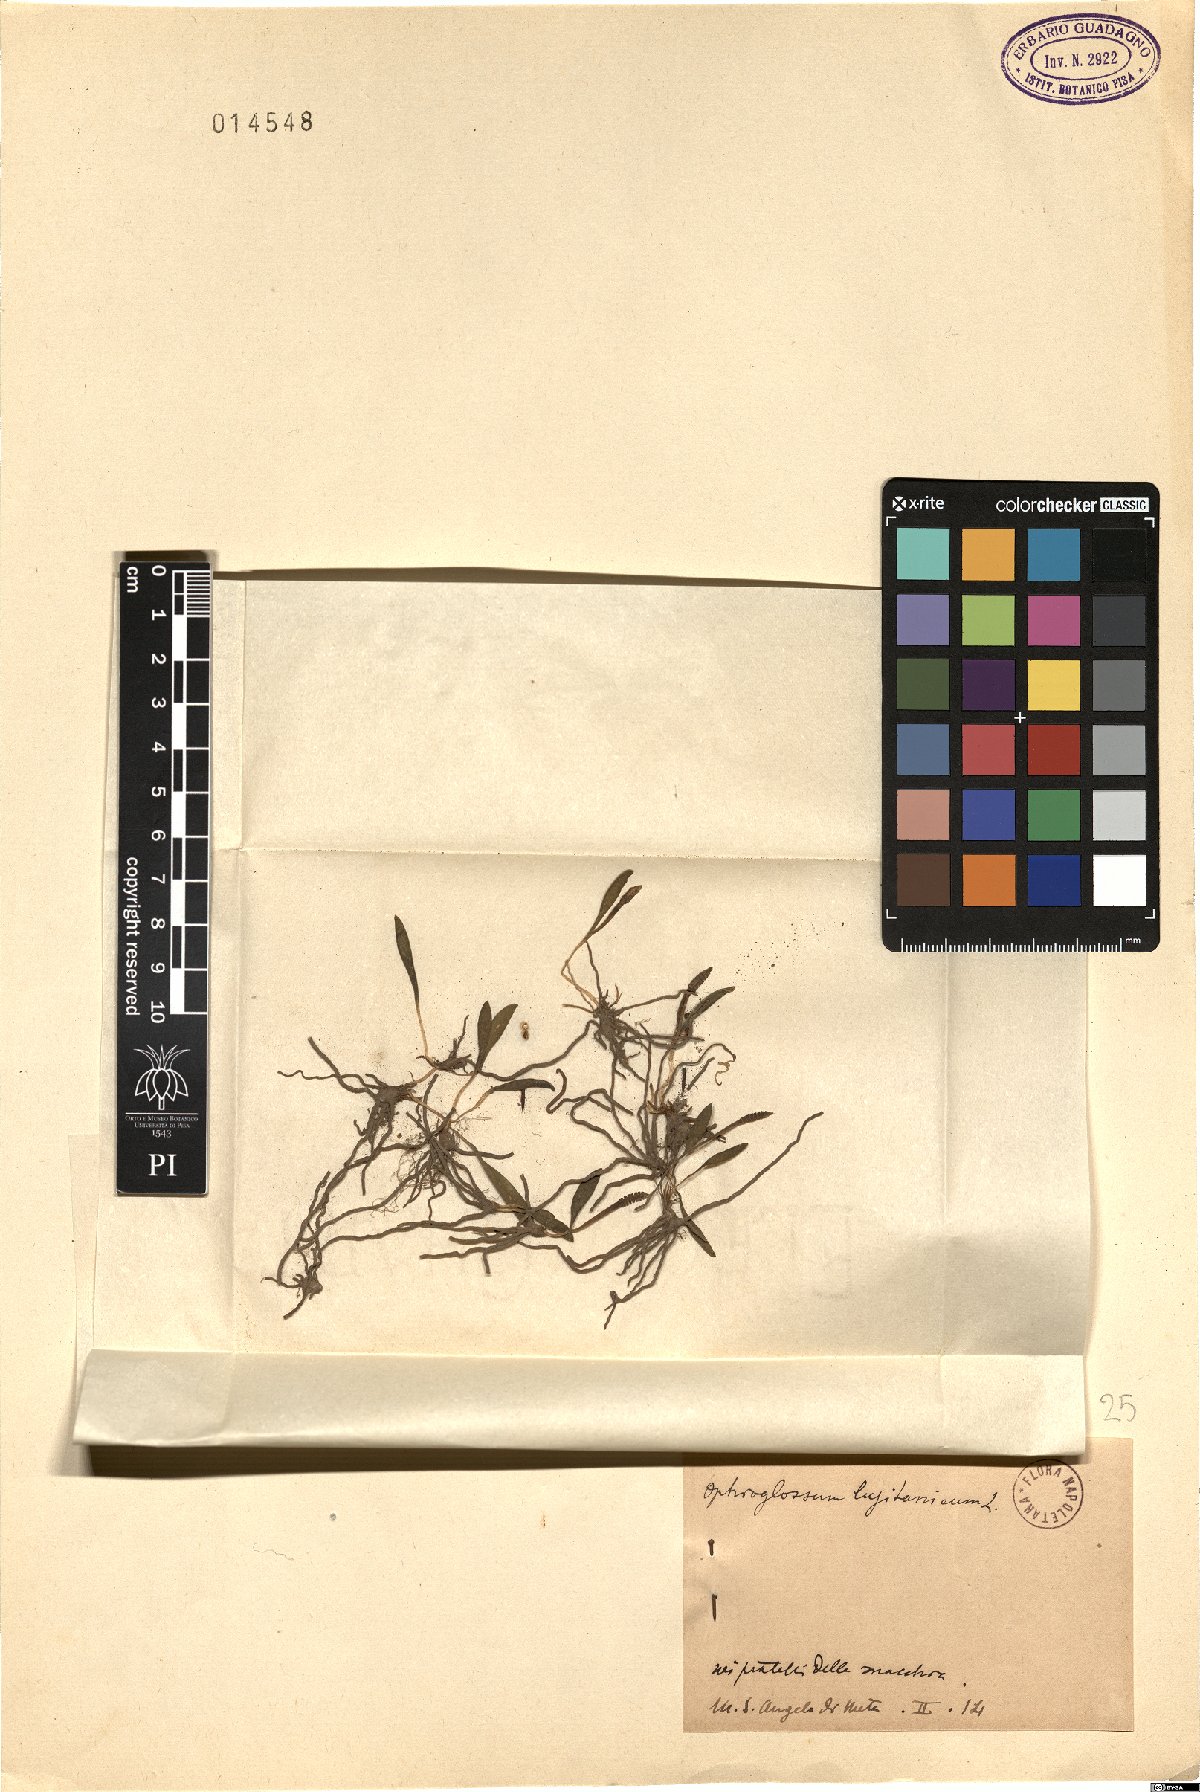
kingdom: Plantae
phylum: Tracheophyta
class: Polypodiopsida
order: Ophioglossales
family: Ophioglossaceae
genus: Ophioglossum
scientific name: Ophioglossum lusitanicum
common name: Least adder's-tongue
